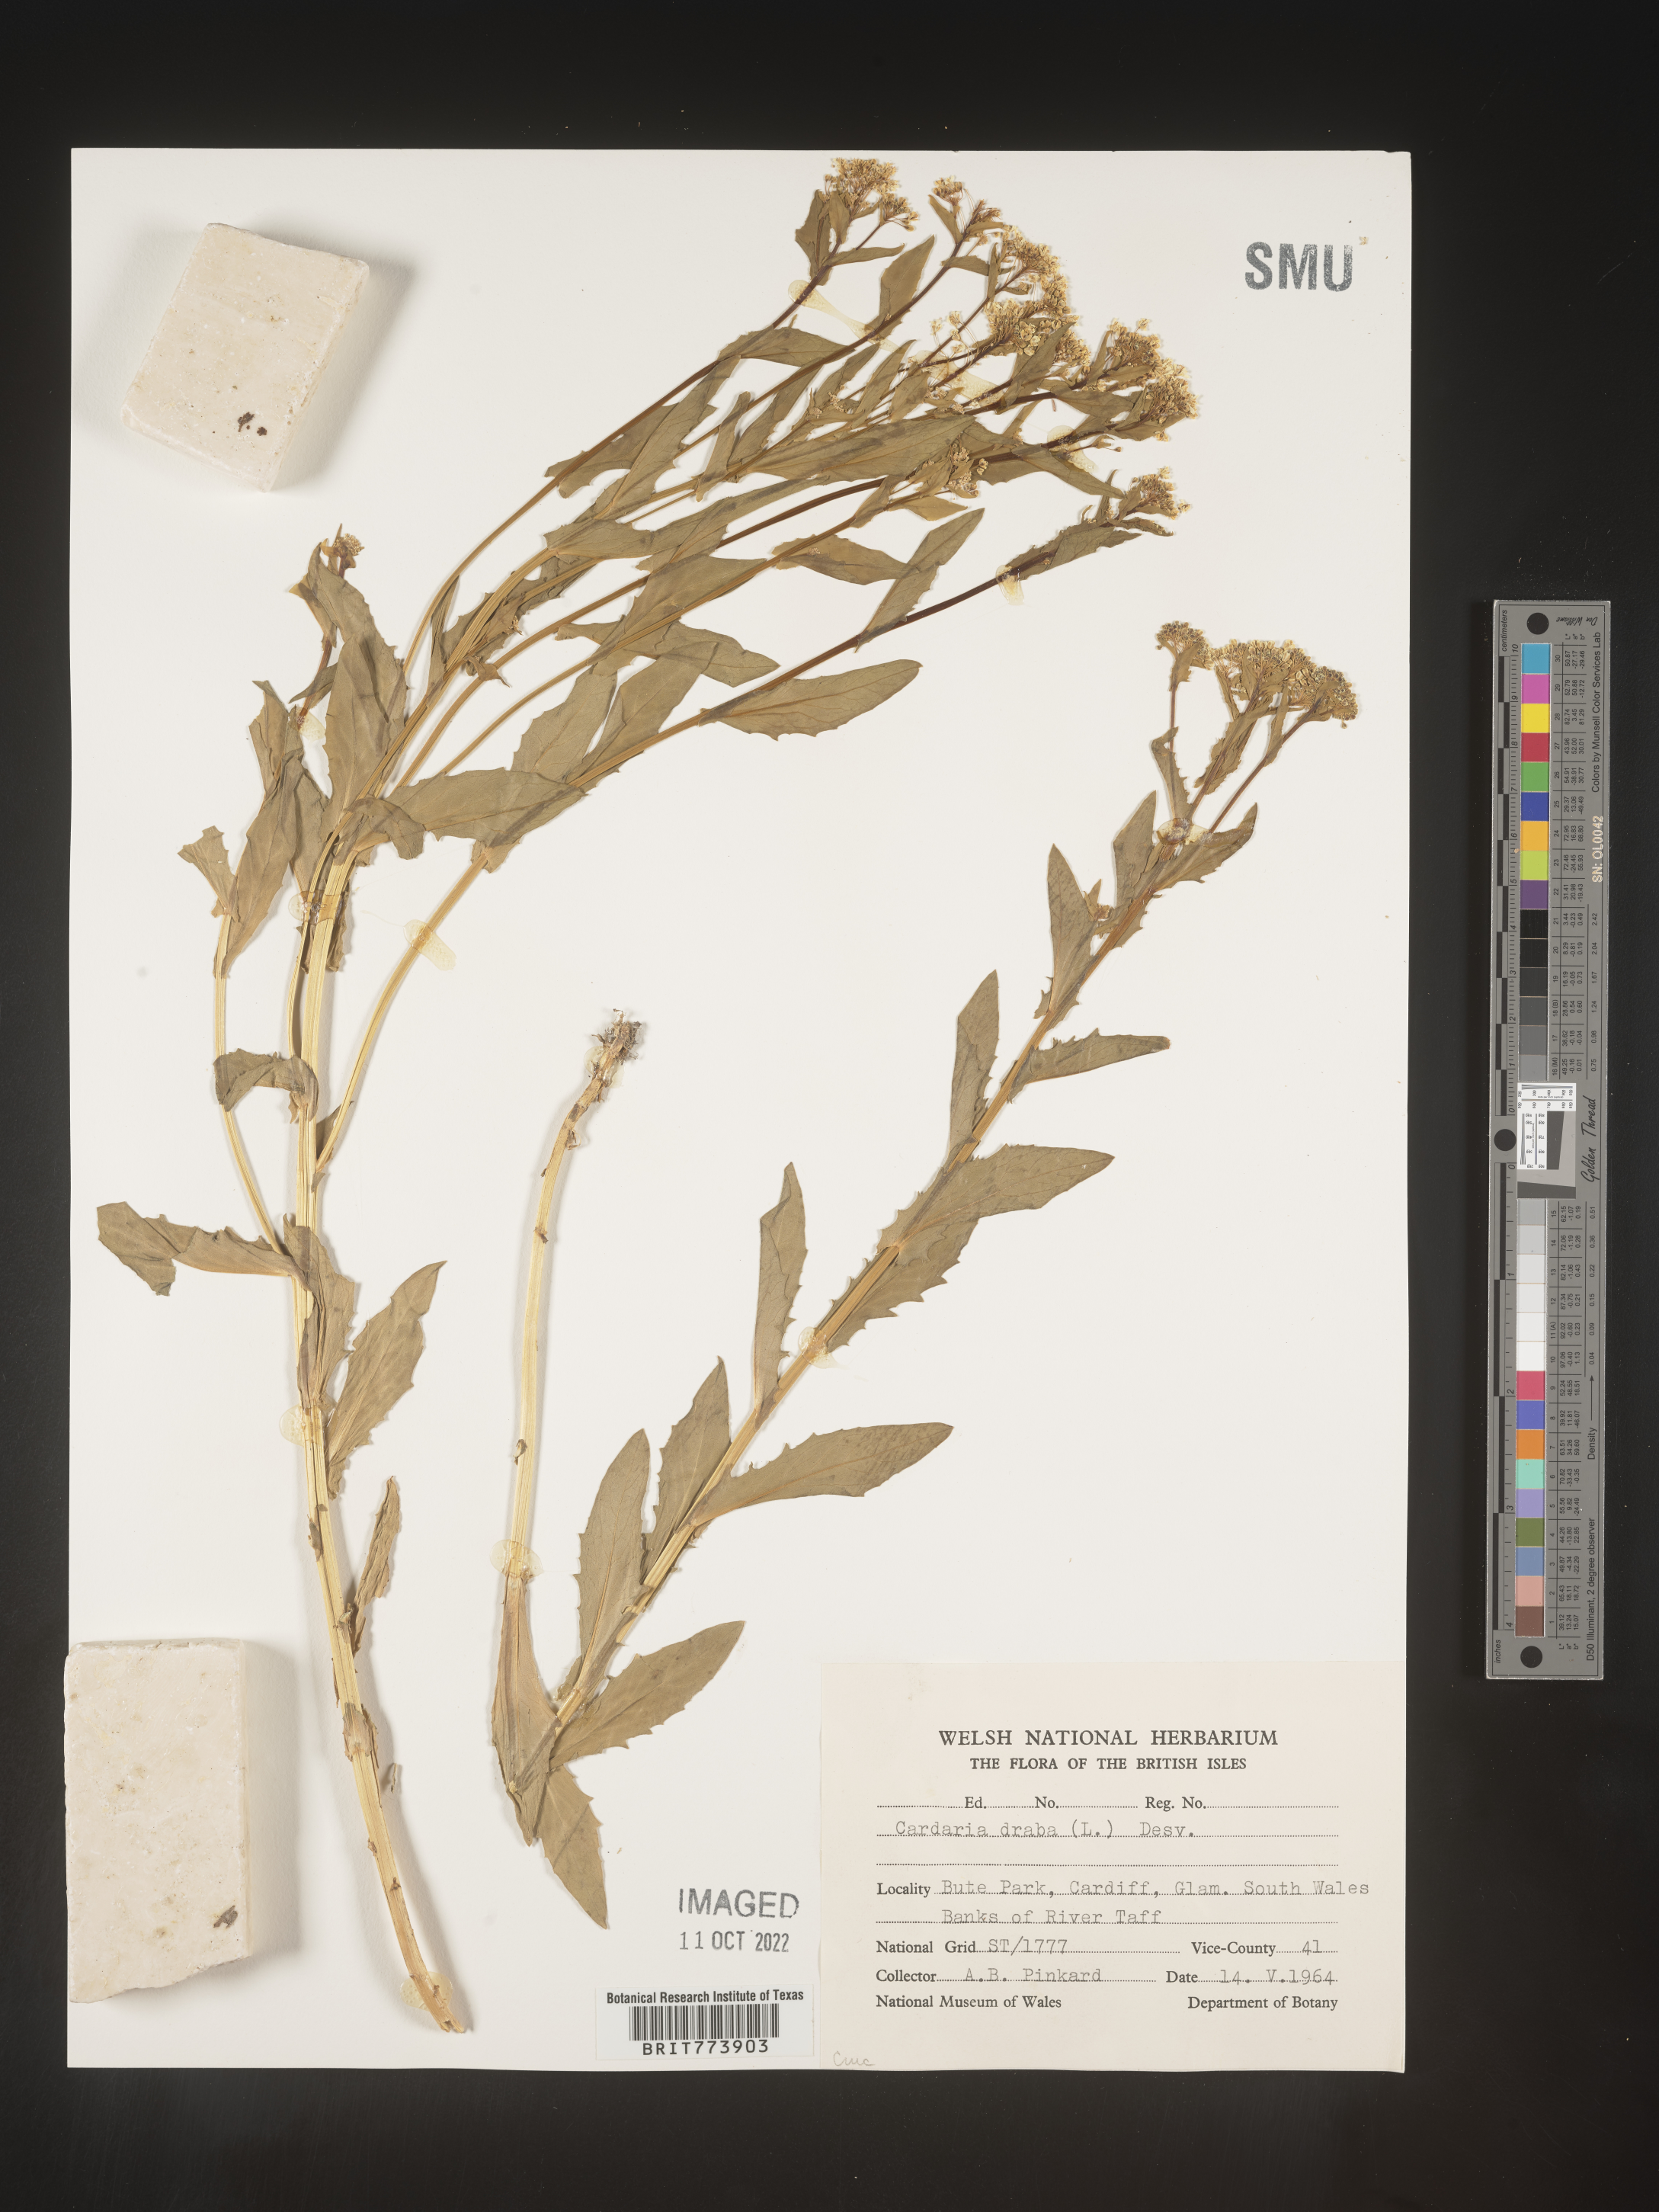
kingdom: Plantae
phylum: Tracheophyta
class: Magnoliopsida
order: Brassicales
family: Brassicaceae
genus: Lepidium
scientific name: Lepidium
